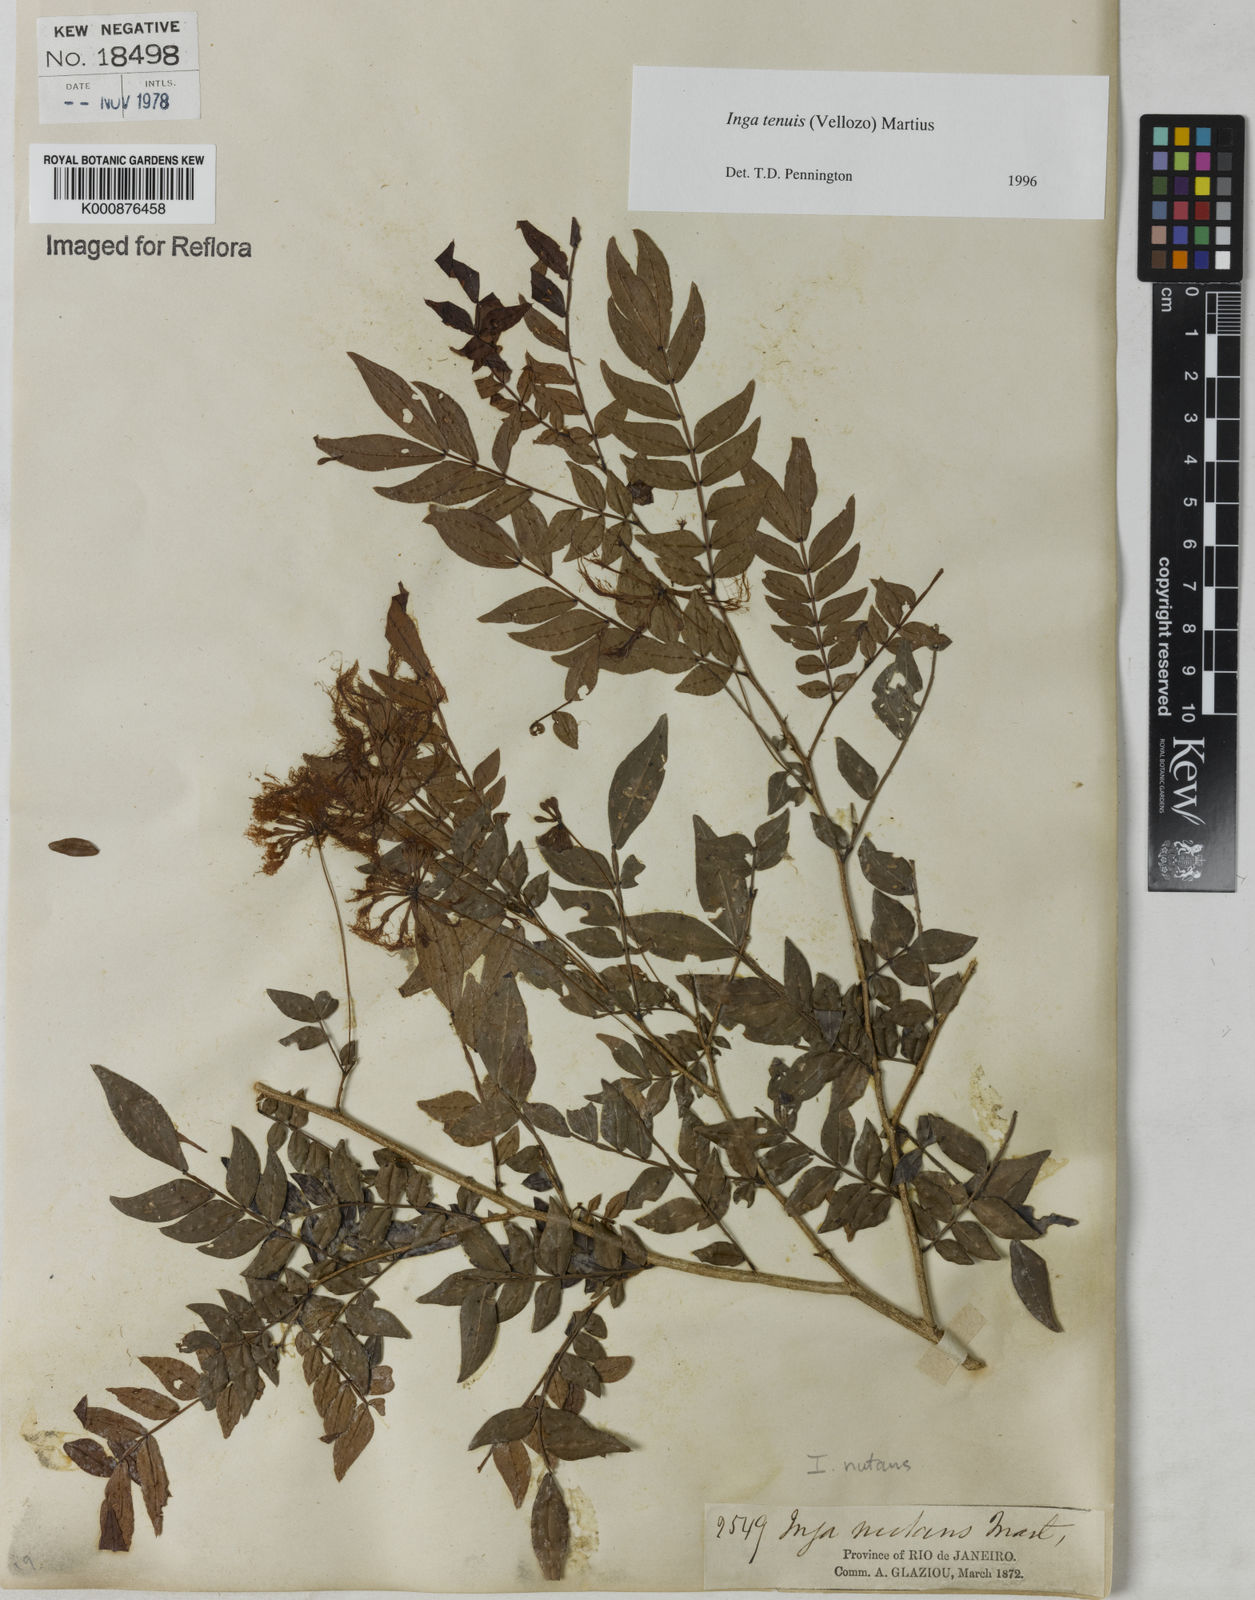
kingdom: Plantae
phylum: Tracheophyta
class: Magnoliopsida
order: Fabales
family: Fabaceae
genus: Inga
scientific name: Inga tenuis
